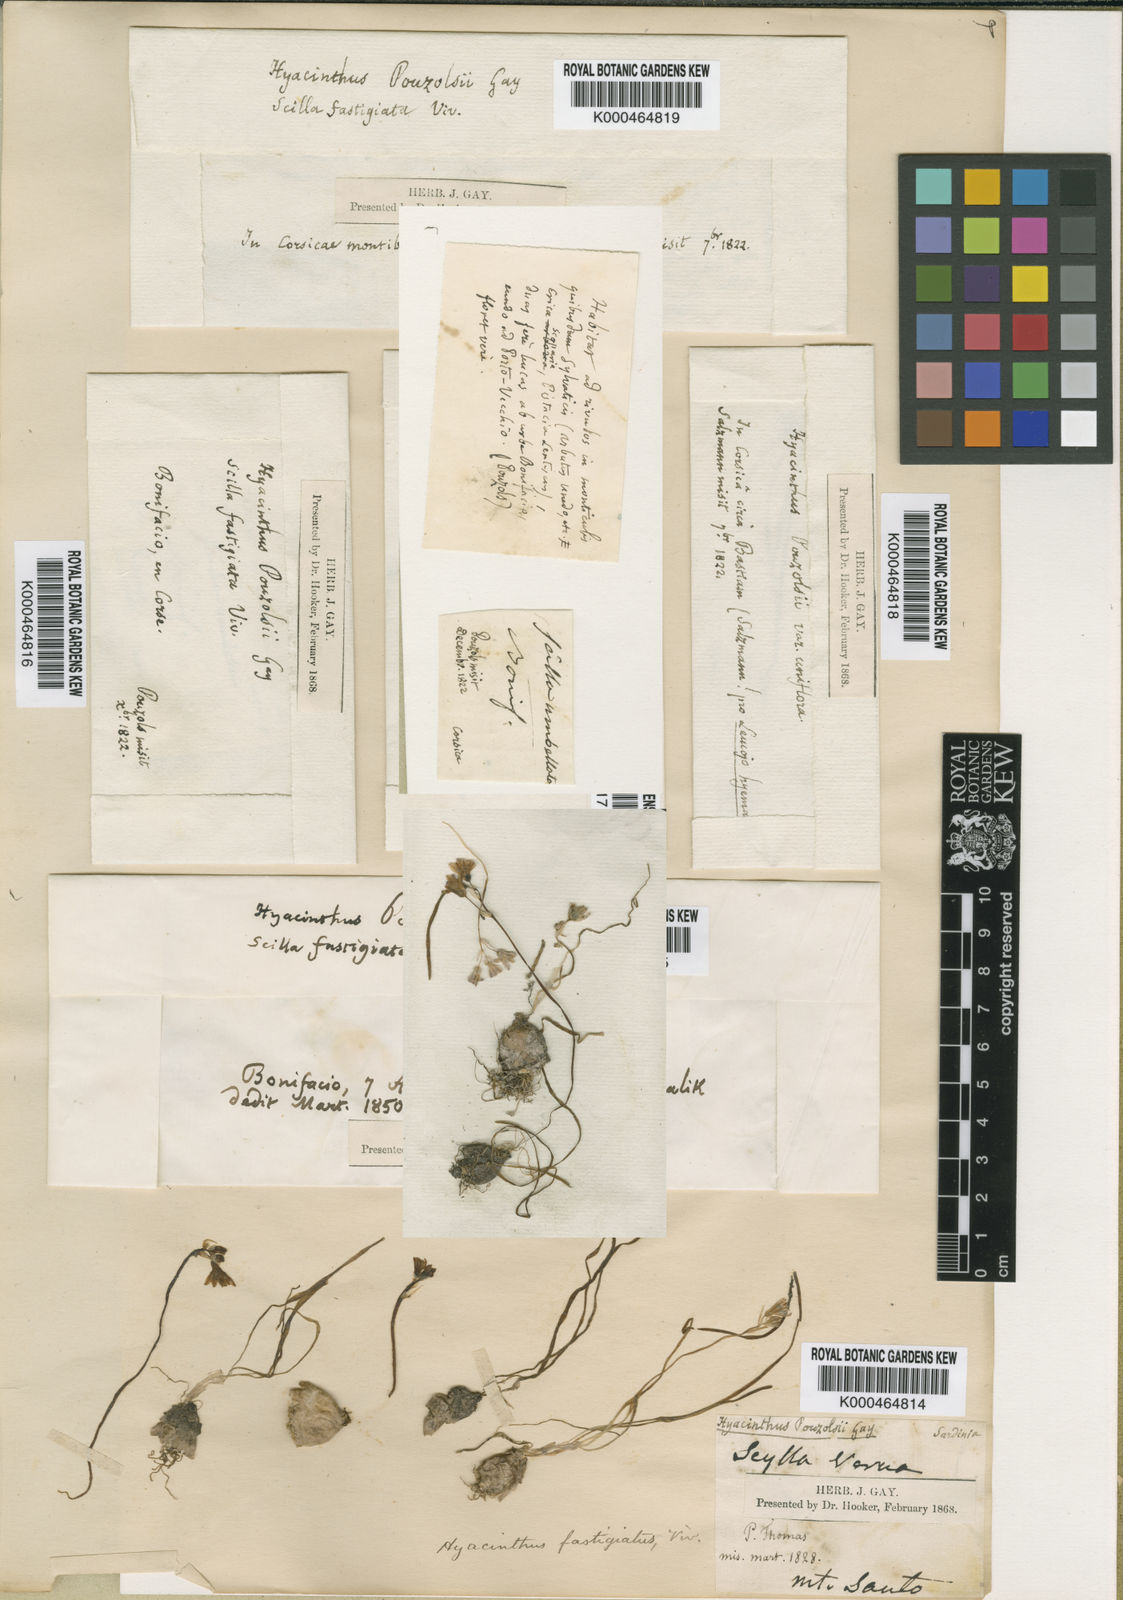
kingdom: Plantae
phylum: Tracheophyta
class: Liliopsida
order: Asparagales
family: Asparagaceae
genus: Brimeura
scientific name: Brimeura fastigiata
